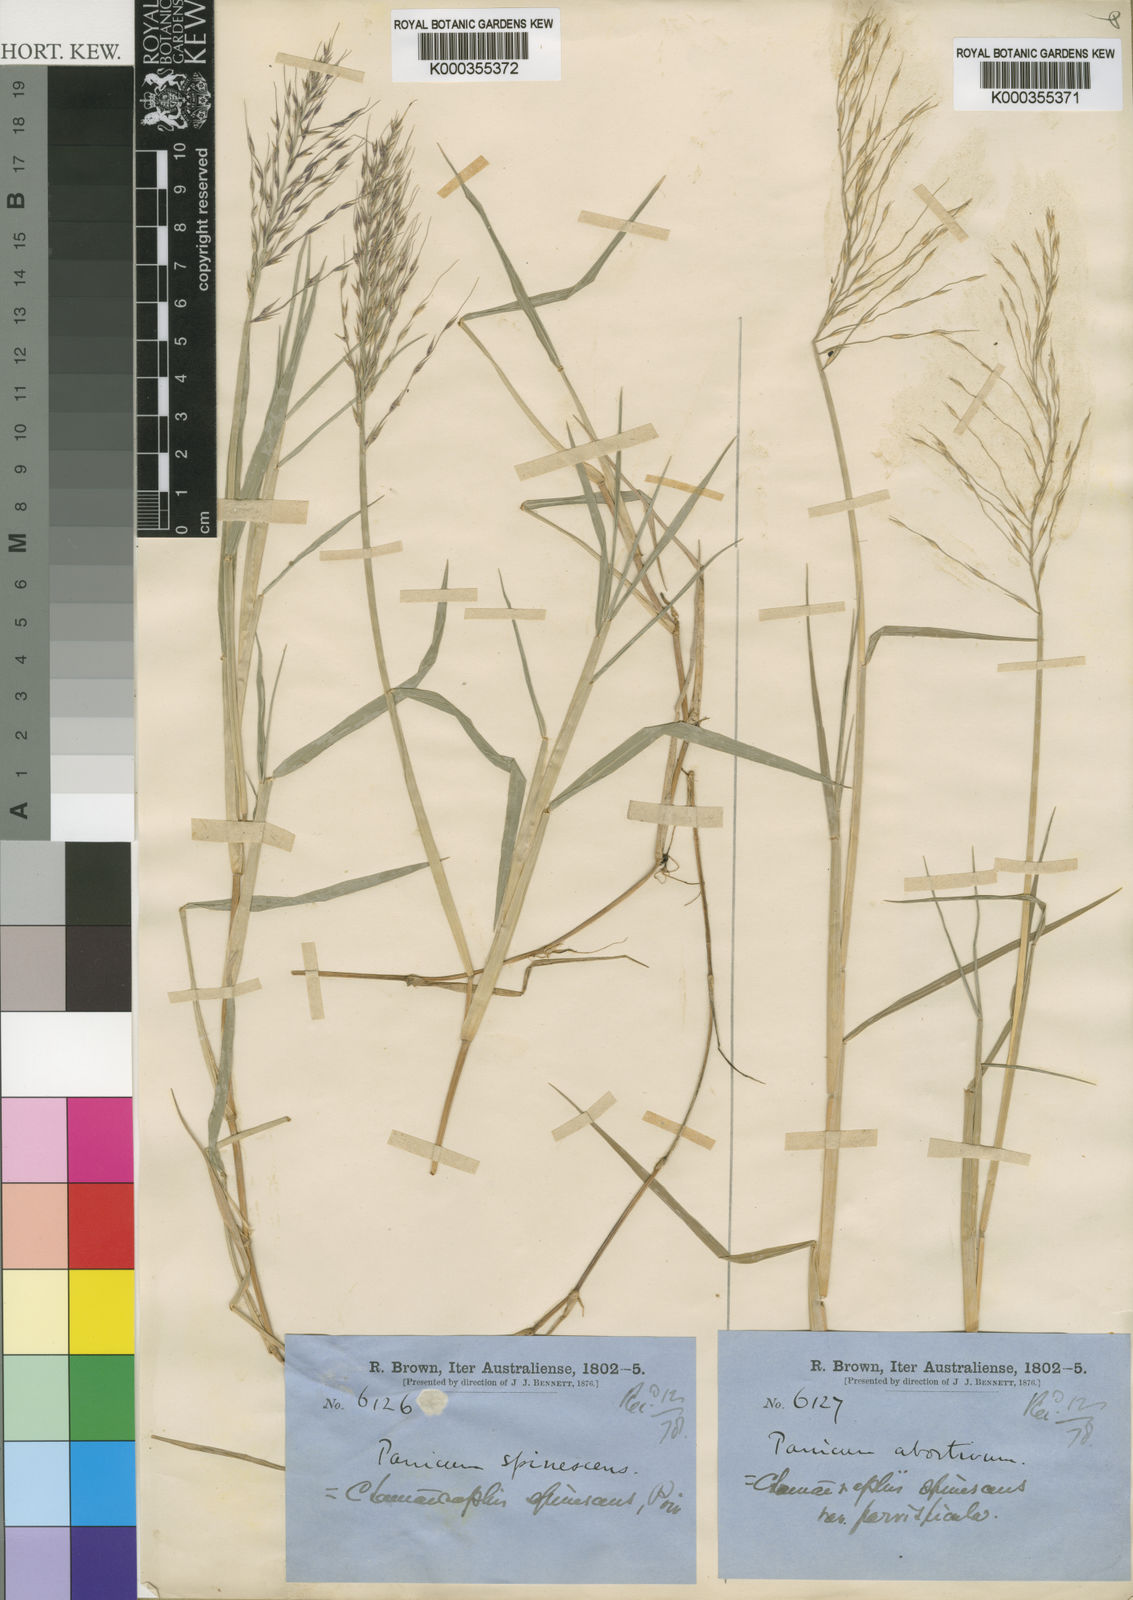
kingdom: Plantae
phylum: Tracheophyta
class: Liliopsida
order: Poales
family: Poaceae
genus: Pseudoraphis
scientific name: Pseudoraphis spinescens
